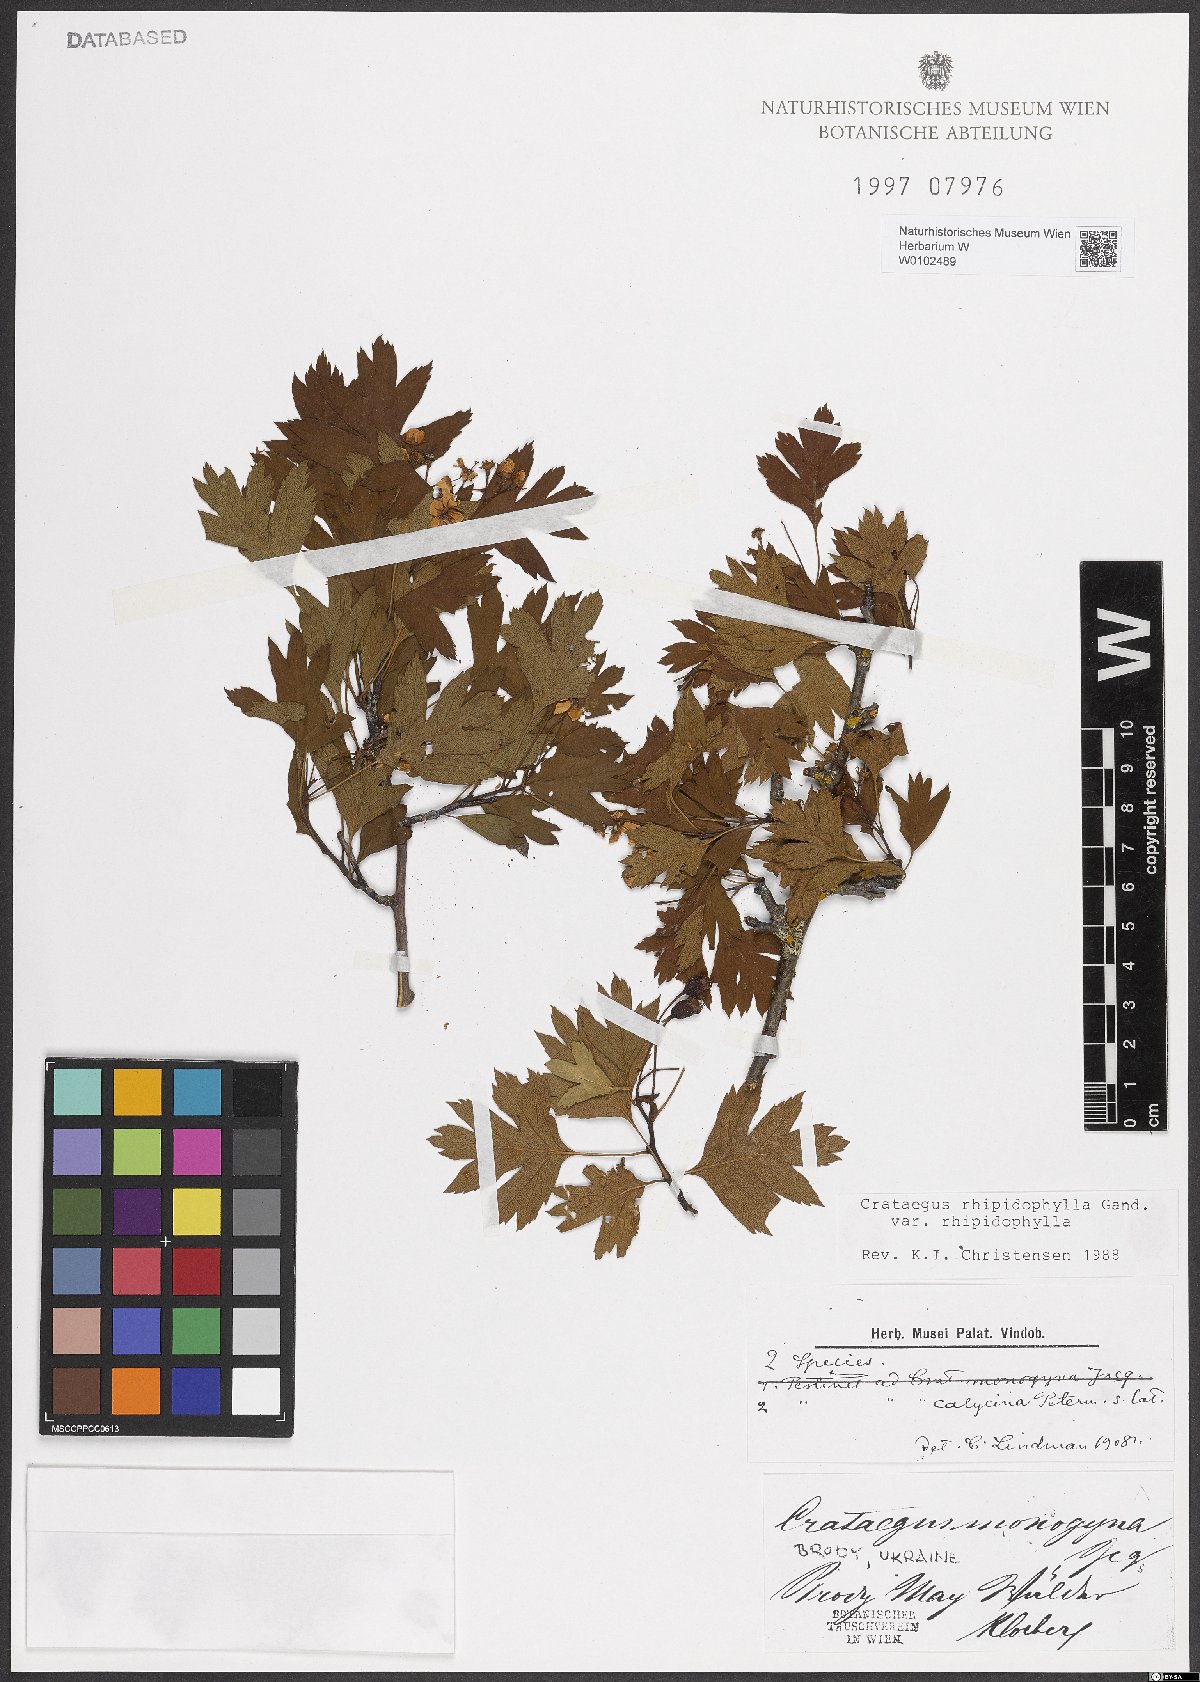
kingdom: Plantae
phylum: Tracheophyta
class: Magnoliopsida
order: Rosales
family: Rosaceae
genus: Crataegus
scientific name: Crataegus rhipidophylla
